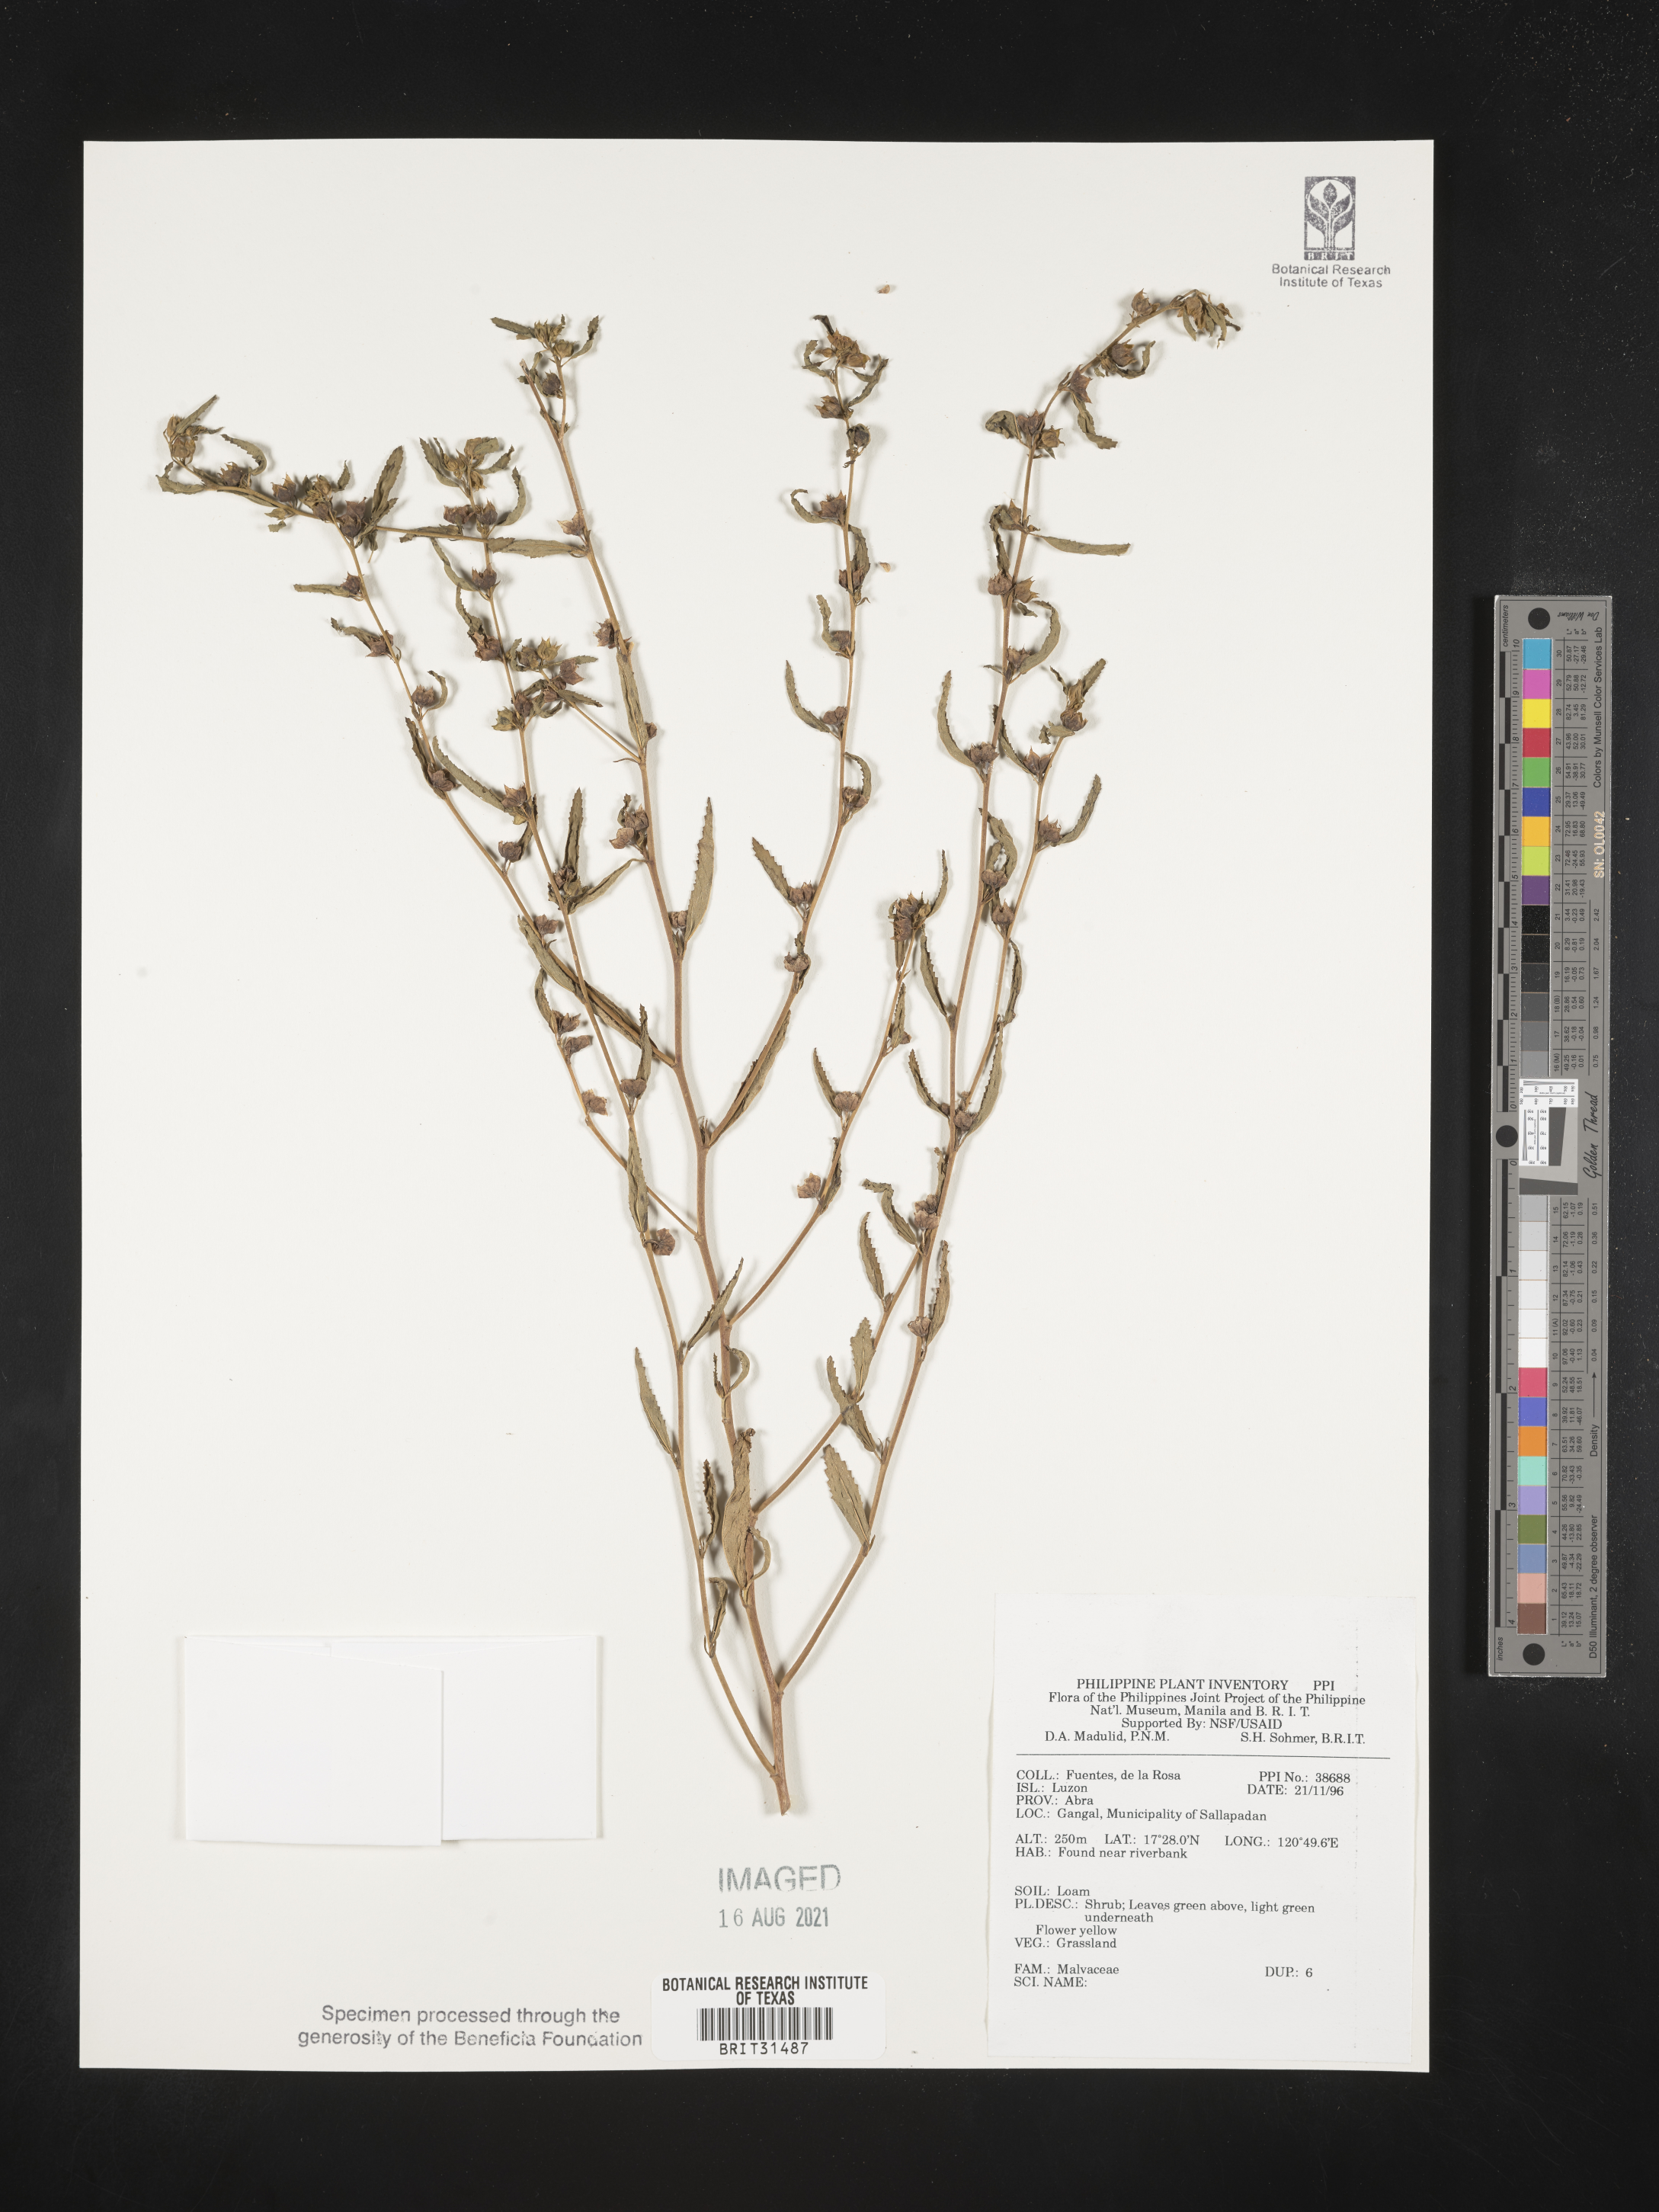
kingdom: Plantae
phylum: Tracheophyta
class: Magnoliopsida
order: Malvales
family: Malvaceae
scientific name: Malvaceae
